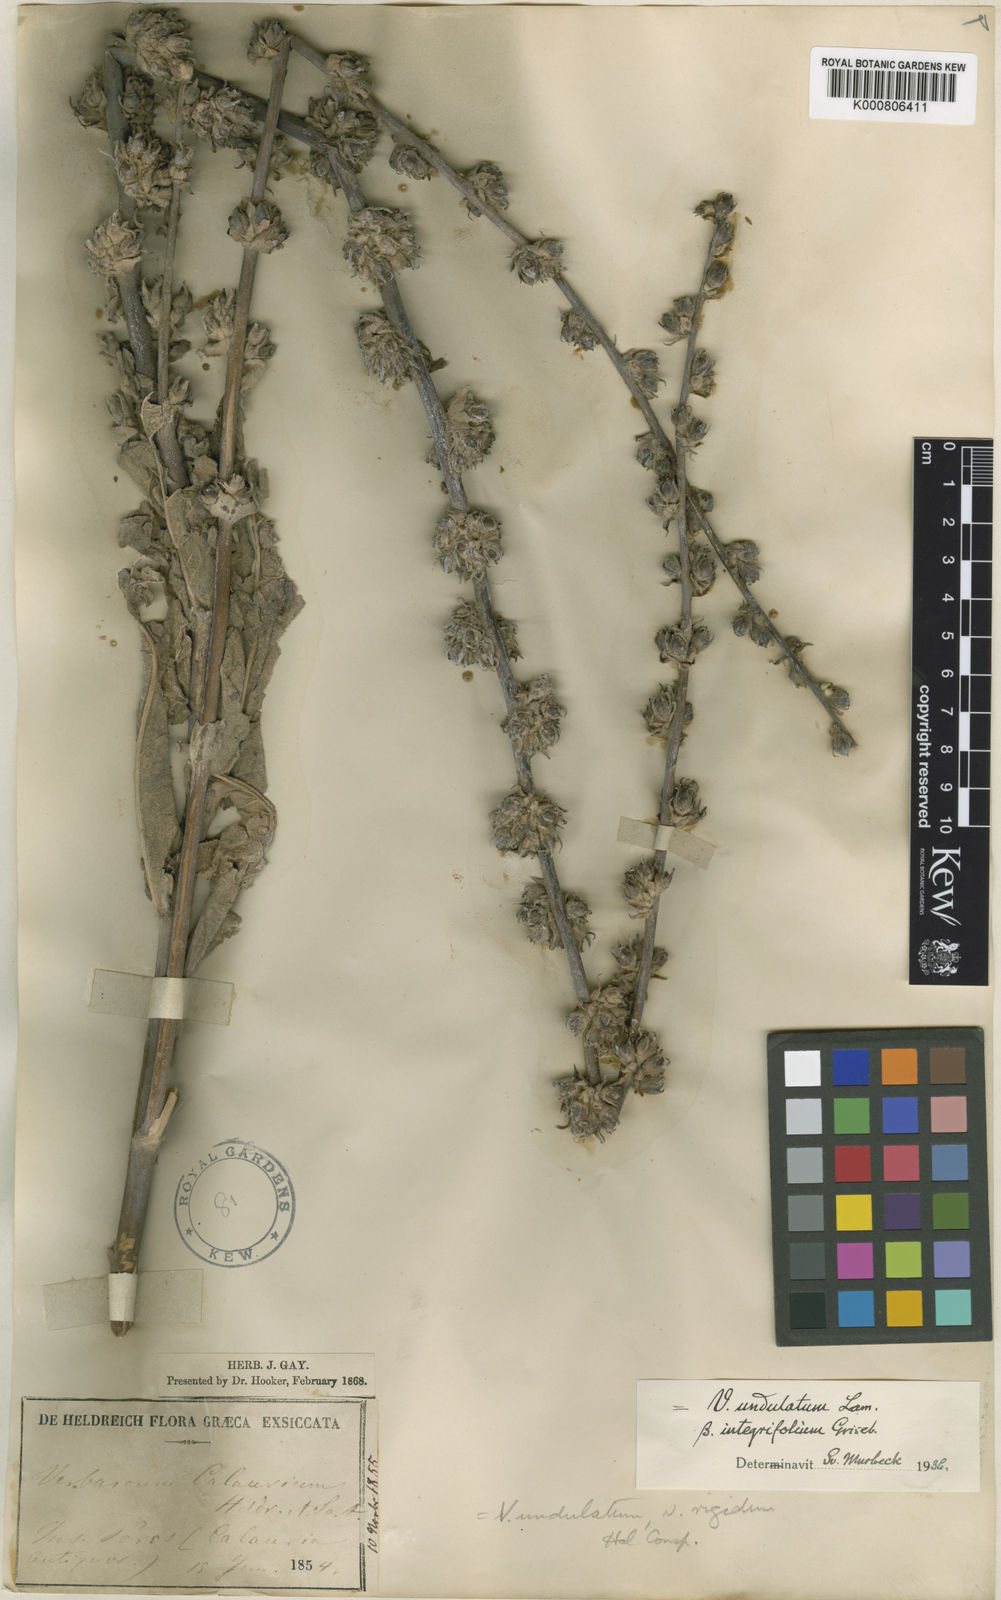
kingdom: Plantae
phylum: Tracheophyta
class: Magnoliopsida
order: Lamiales
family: Scrophulariaceae
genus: Verbascum
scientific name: Verbascum undulatum
